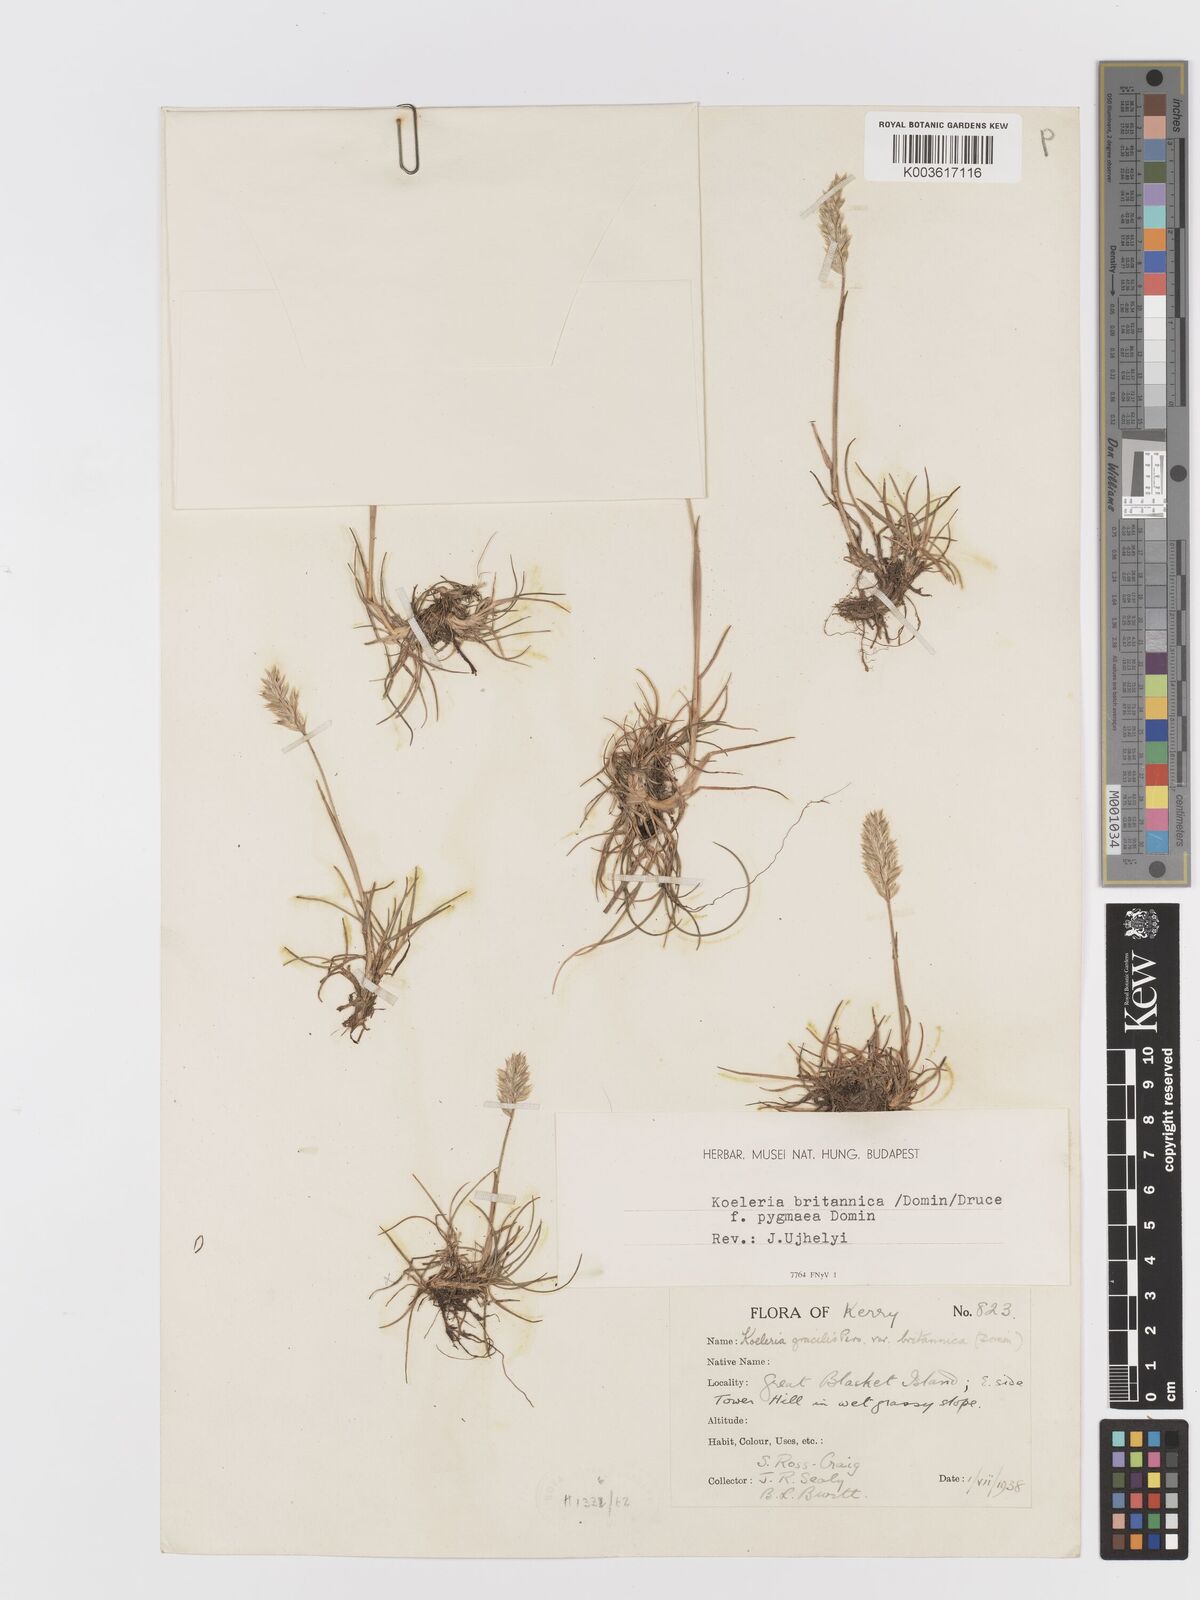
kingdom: Plantae
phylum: Tracheophyta
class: Liliopsida
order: Poales
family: Poaceae
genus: Koeleria
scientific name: Koeleria macrantha
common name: Crested hair-grass
